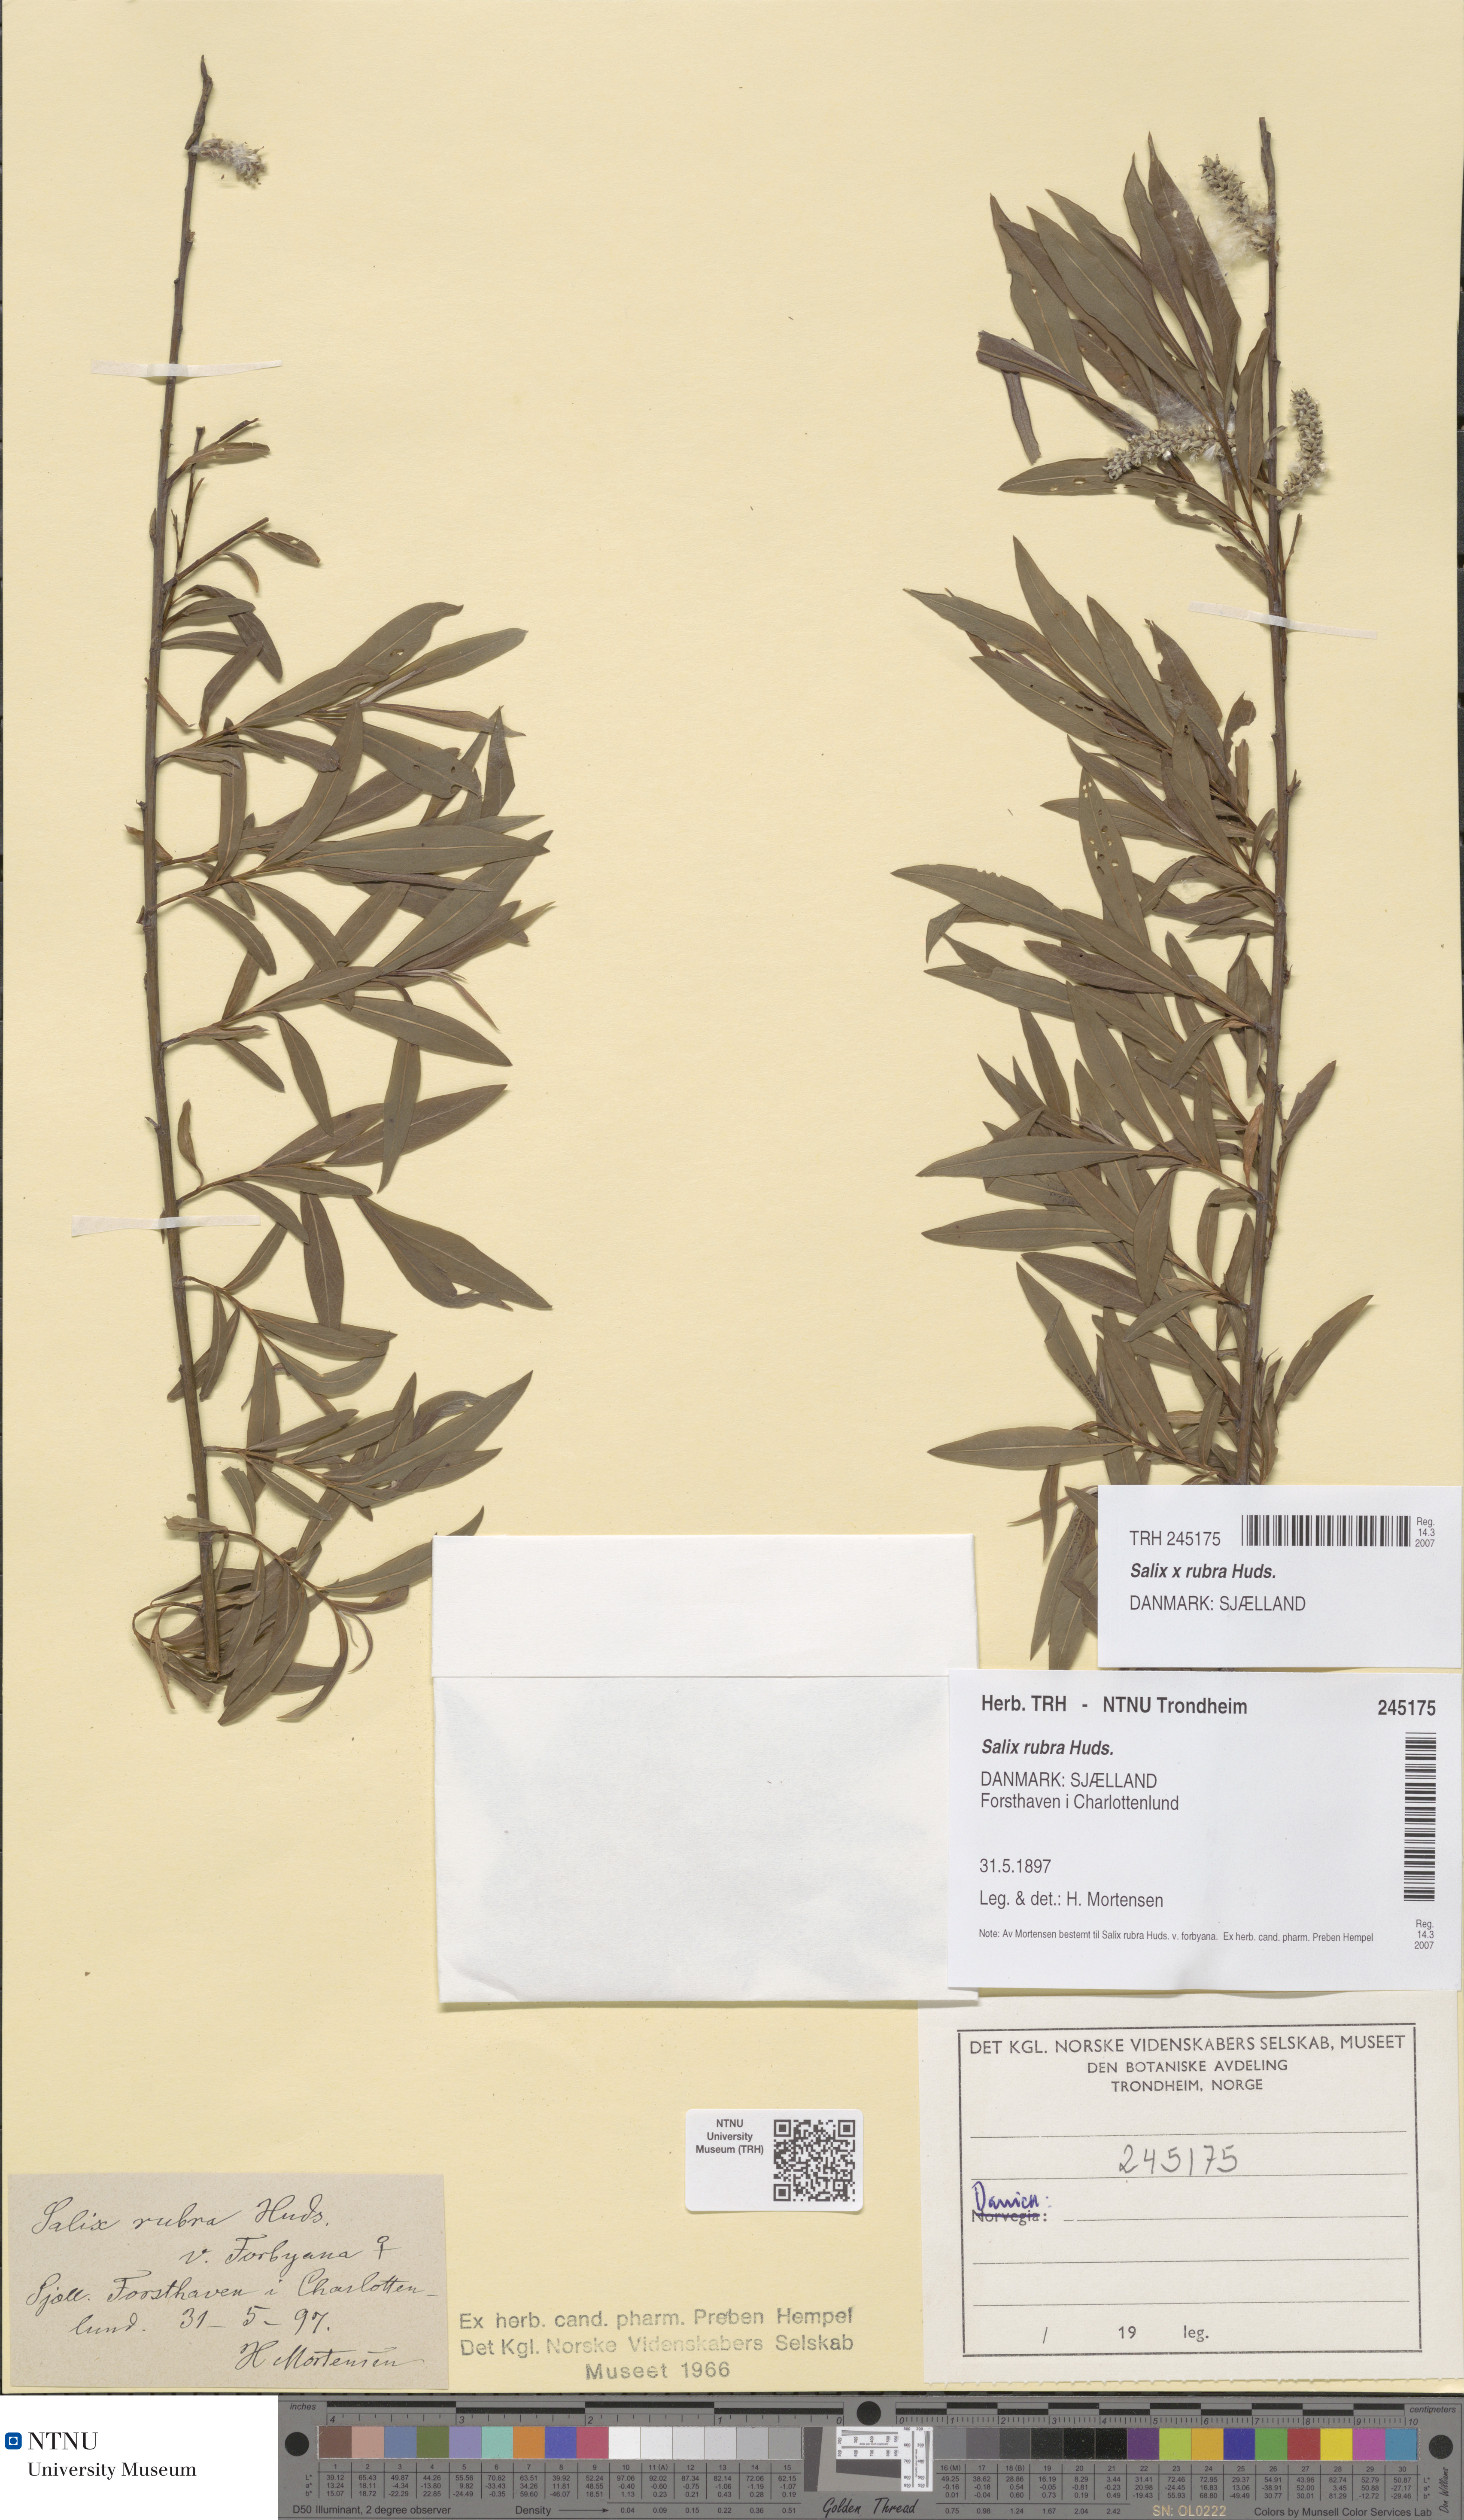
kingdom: Plantae
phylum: Tracheophyta
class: Magnoliopsida
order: Malpighiales
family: Salicaceae
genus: Salix
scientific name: Salix rubra
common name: Green-leaf willow
